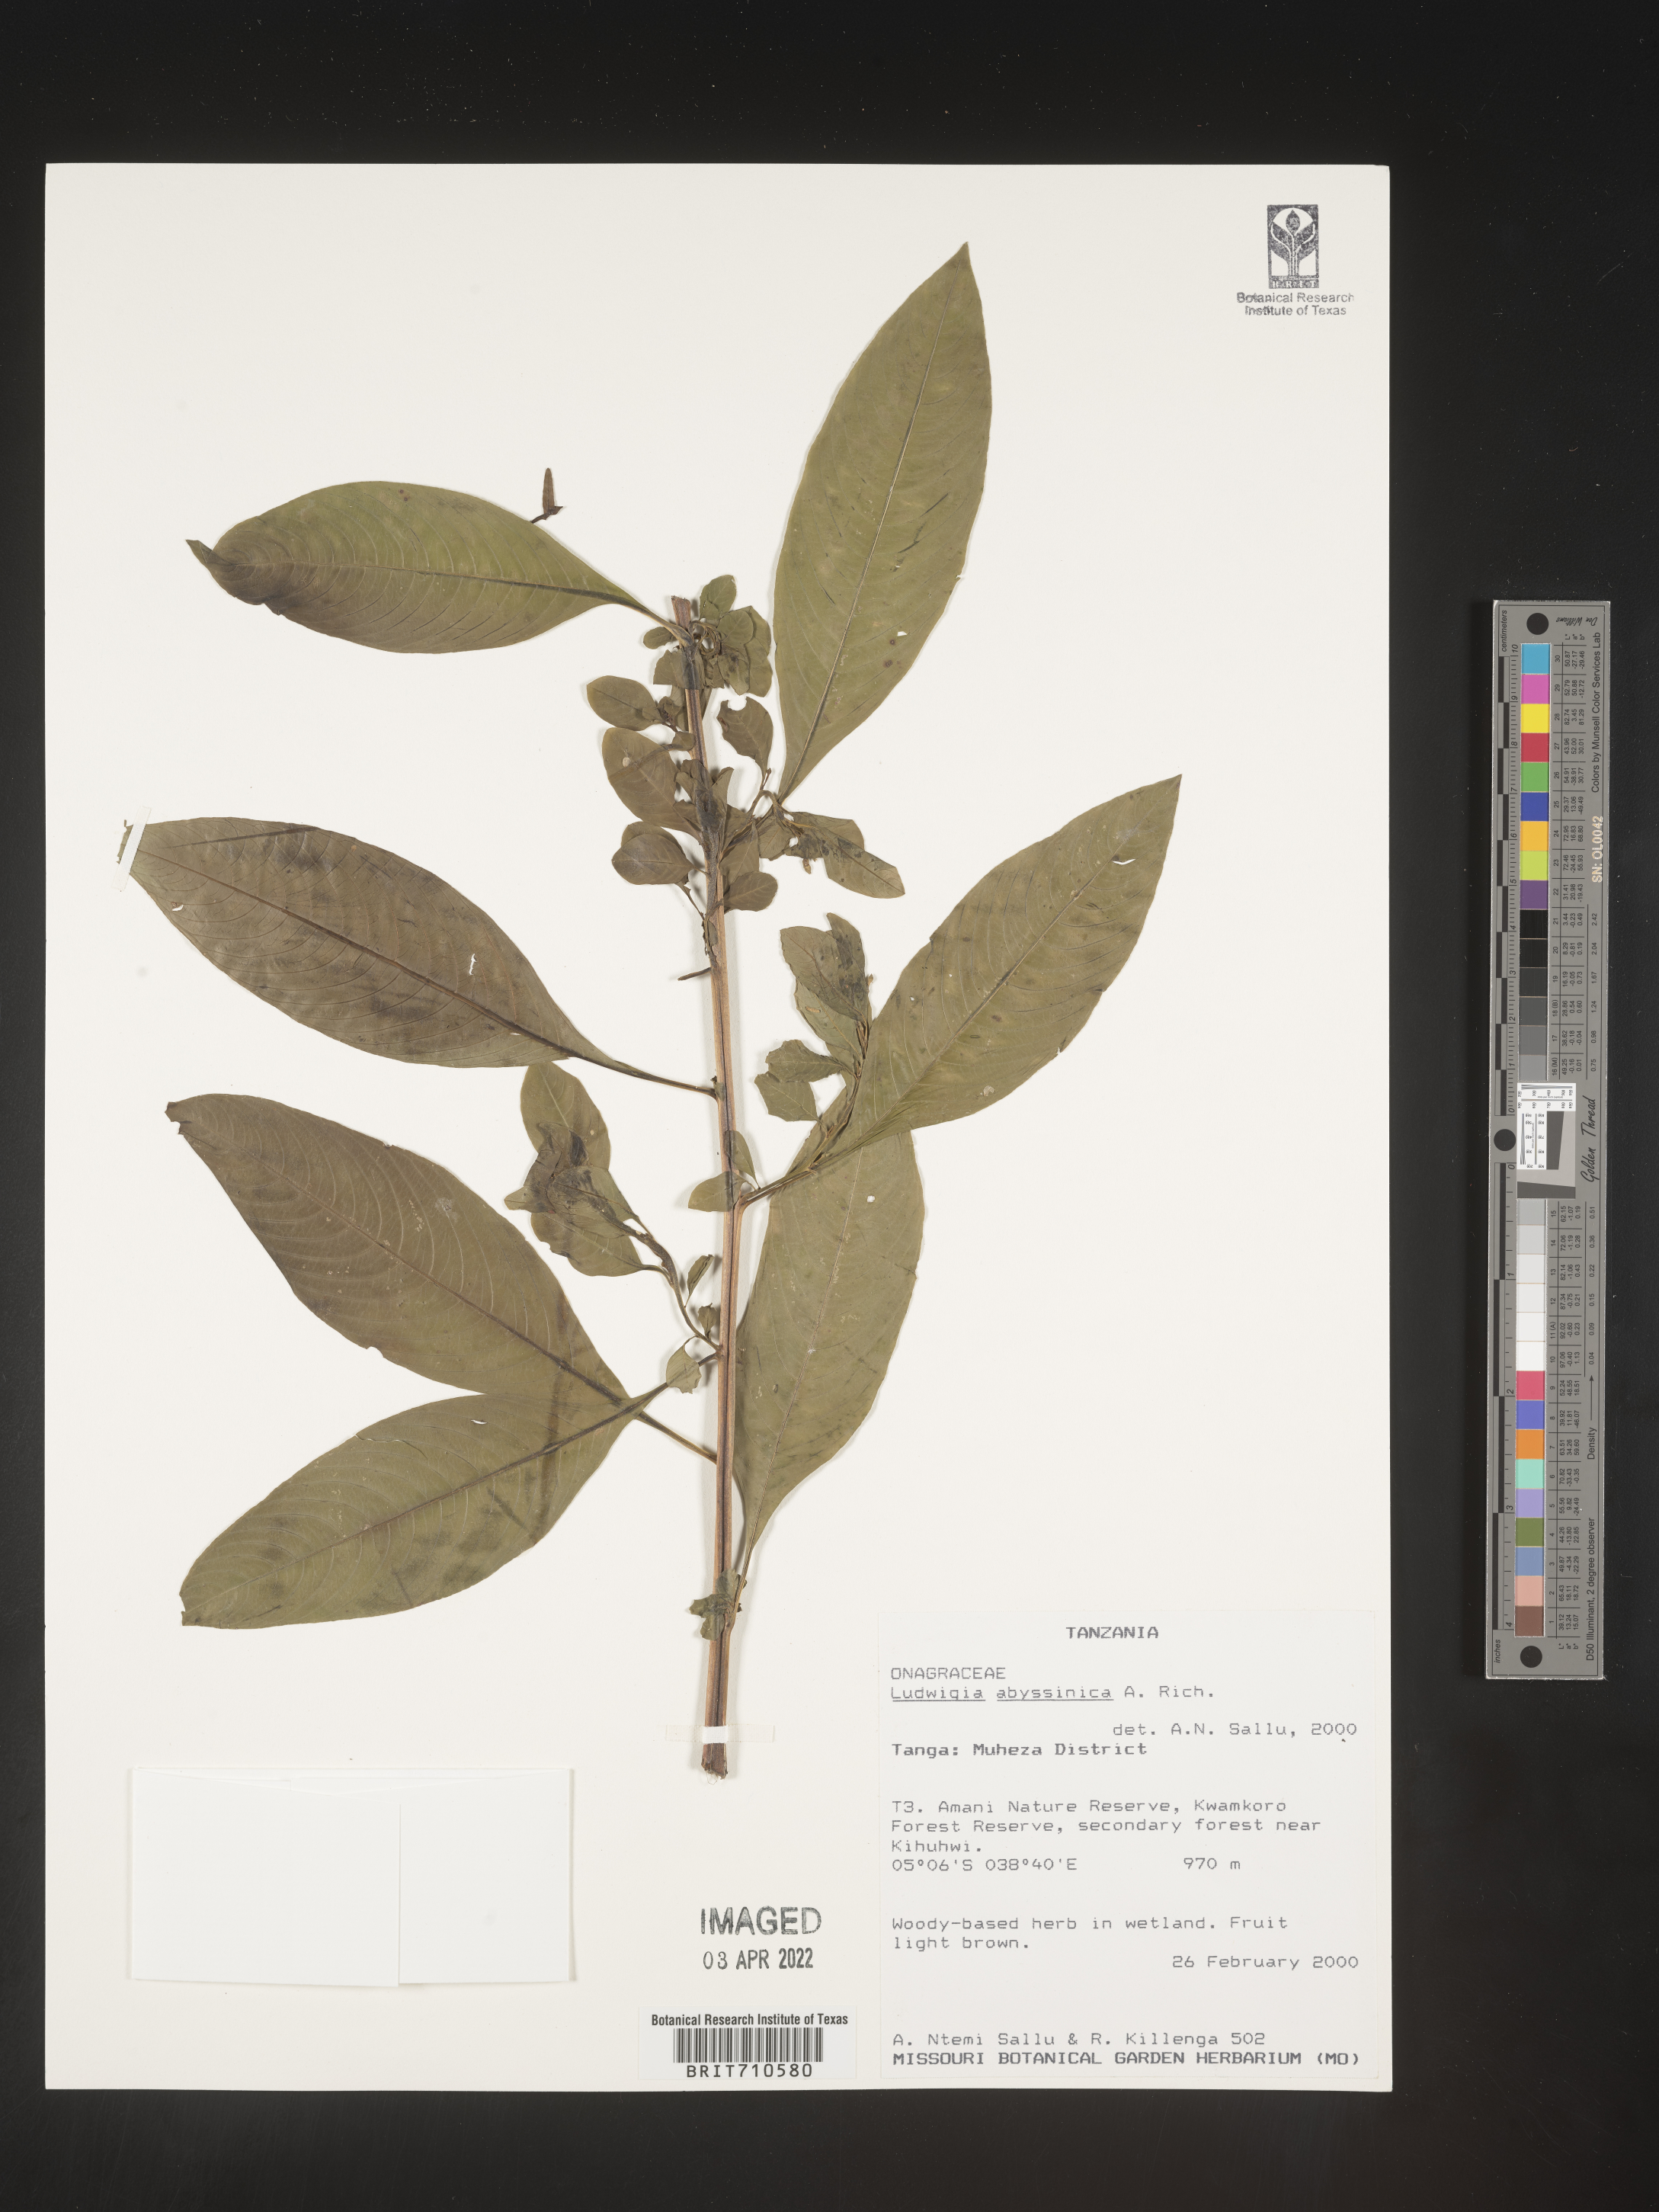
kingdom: Plantae
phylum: Tracheophyta
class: Magnoliopsida
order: Myrtales
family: Onagraceae
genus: Ludwigia
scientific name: Ludwigia
